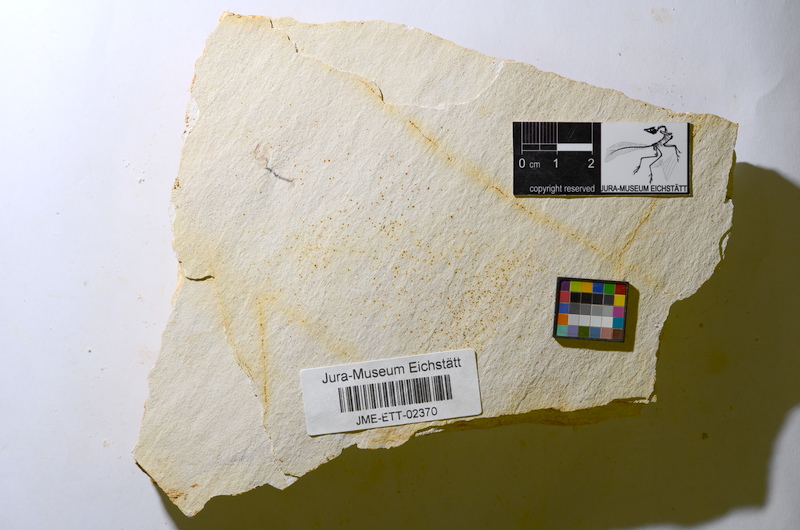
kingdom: Animalia
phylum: Chordata
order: Salmoniformes
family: Orthogonikleithridae
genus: Orthogonikleithrus
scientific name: Orthogonikleithrus hoelli
